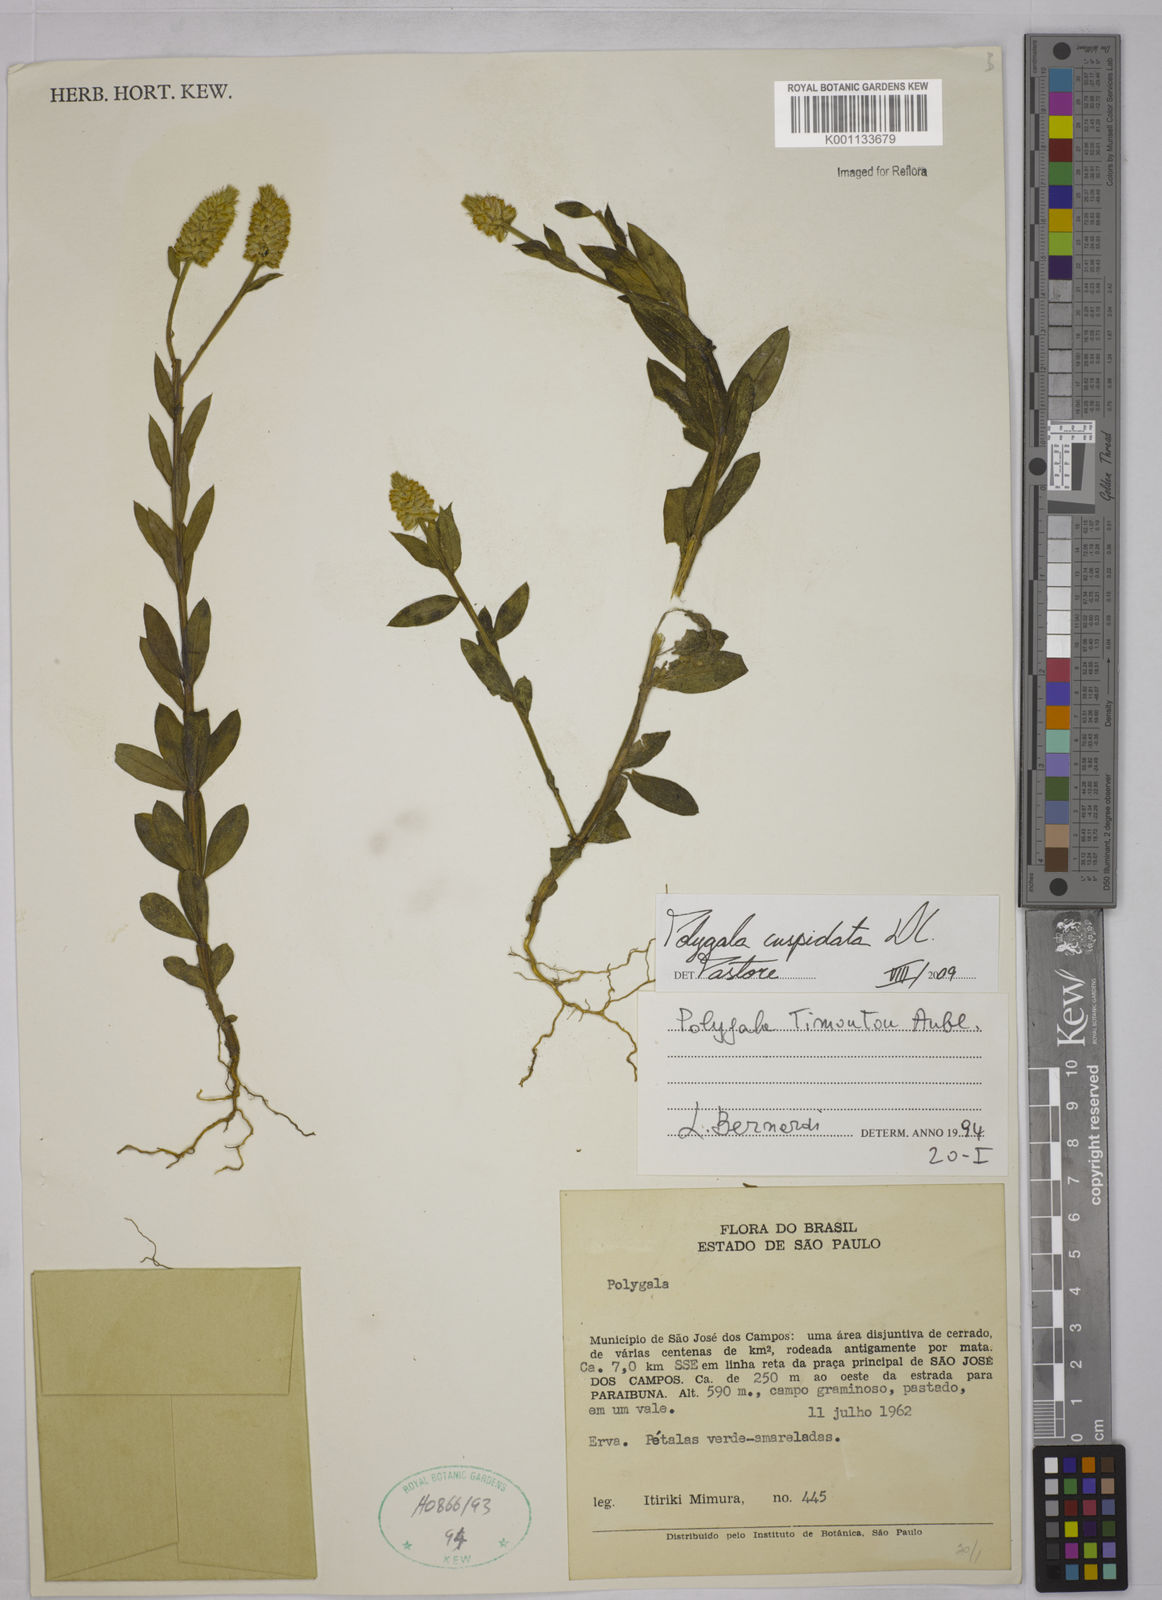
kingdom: Plantae
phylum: Tracheophyta
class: Magnoliopsida
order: Fabales
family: Polygalaceae
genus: Polygala
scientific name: Polygala cuspidata
